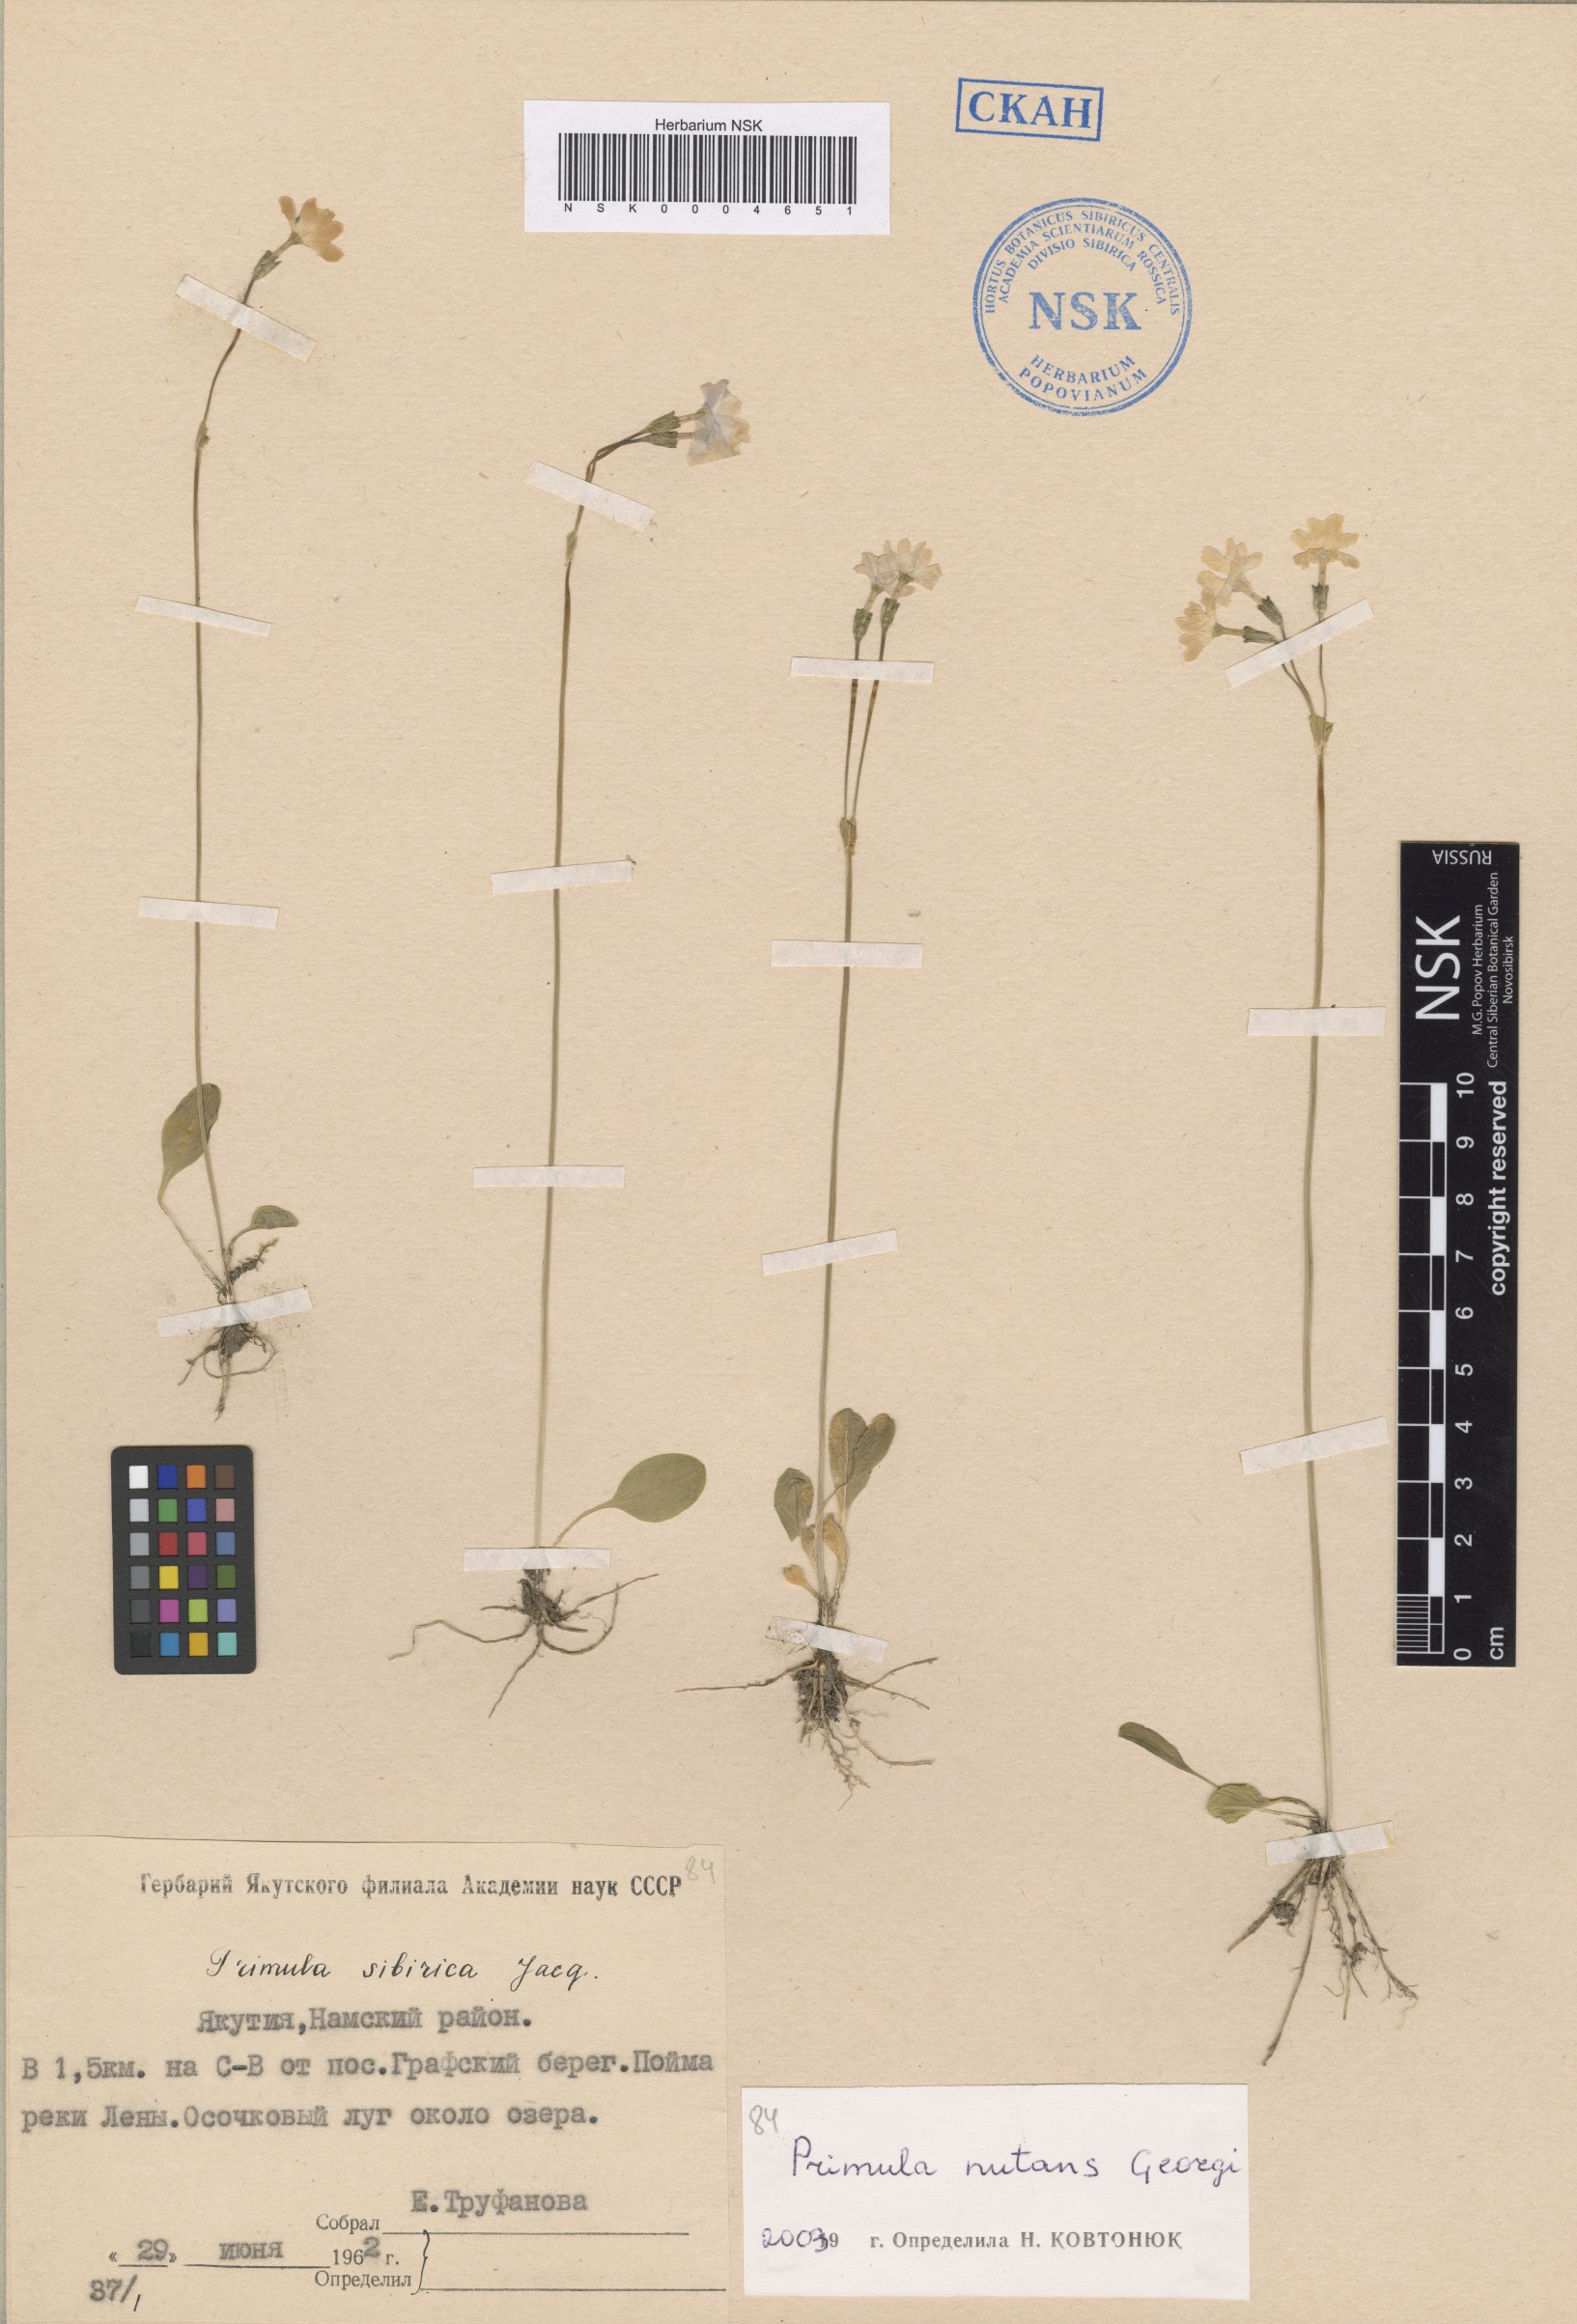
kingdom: Plantae
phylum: Tracheophyta
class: Magnoliopsida
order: Ericales
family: Primulaceae
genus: Primula
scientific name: Primula nutans
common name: Siberian primrose
